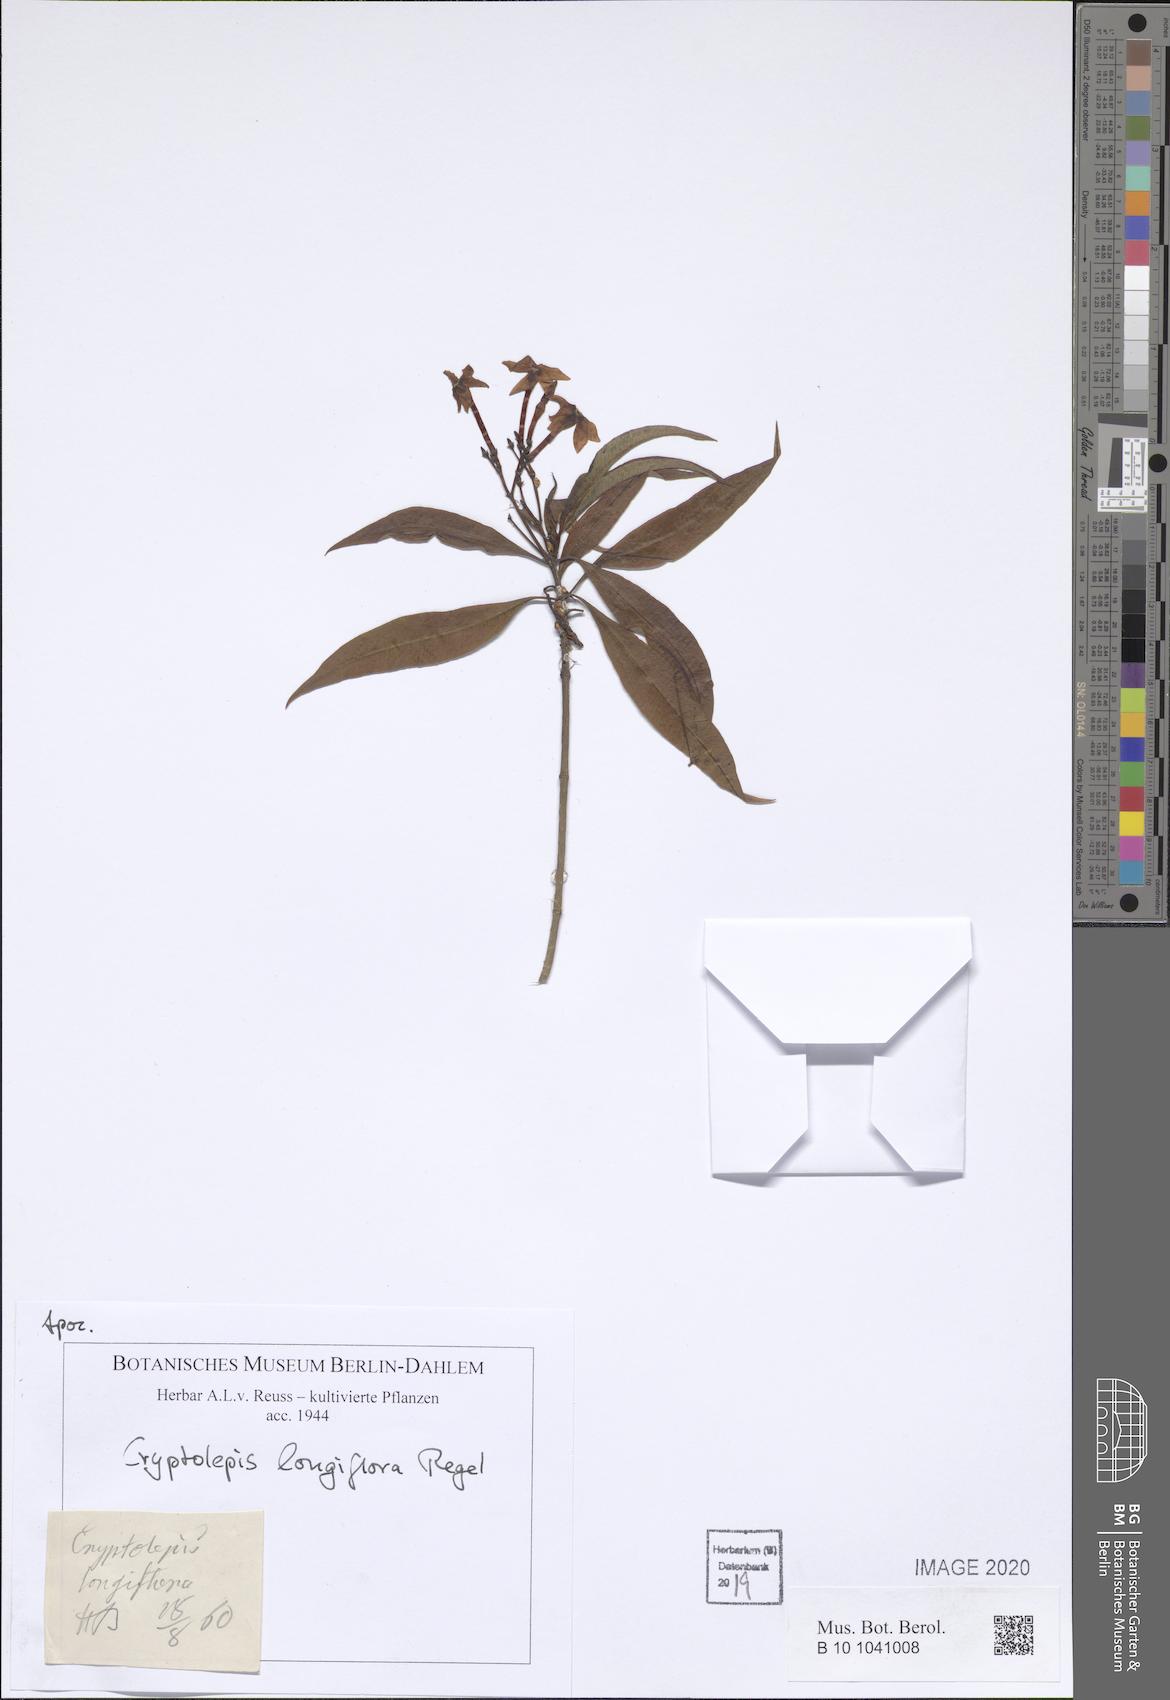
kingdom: Plantae
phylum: Tracheophyta
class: Magnoliopsida
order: Gentianales
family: Apocynaceae
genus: Cryptolepis
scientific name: Cryptolepis oblongifolia
